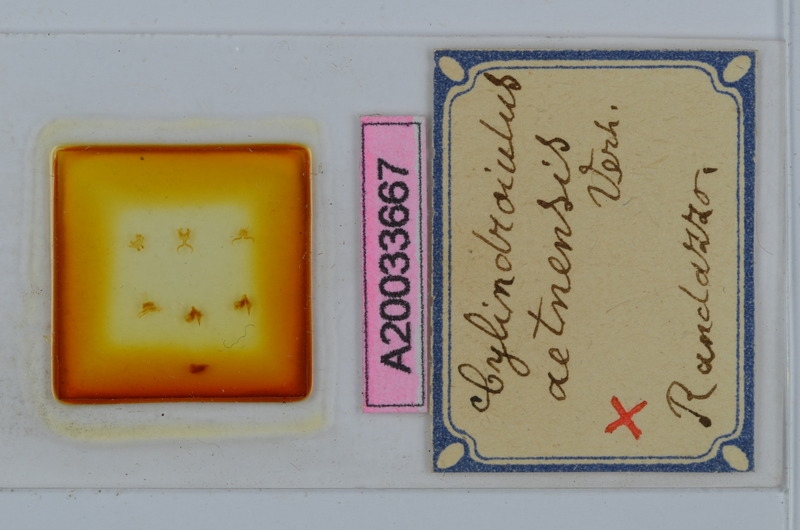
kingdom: Animalia
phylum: Arthropoda
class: Diplopoda
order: Julida
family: Julidae
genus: Cylindroiulus
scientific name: Cylindroiulus aetnensis
